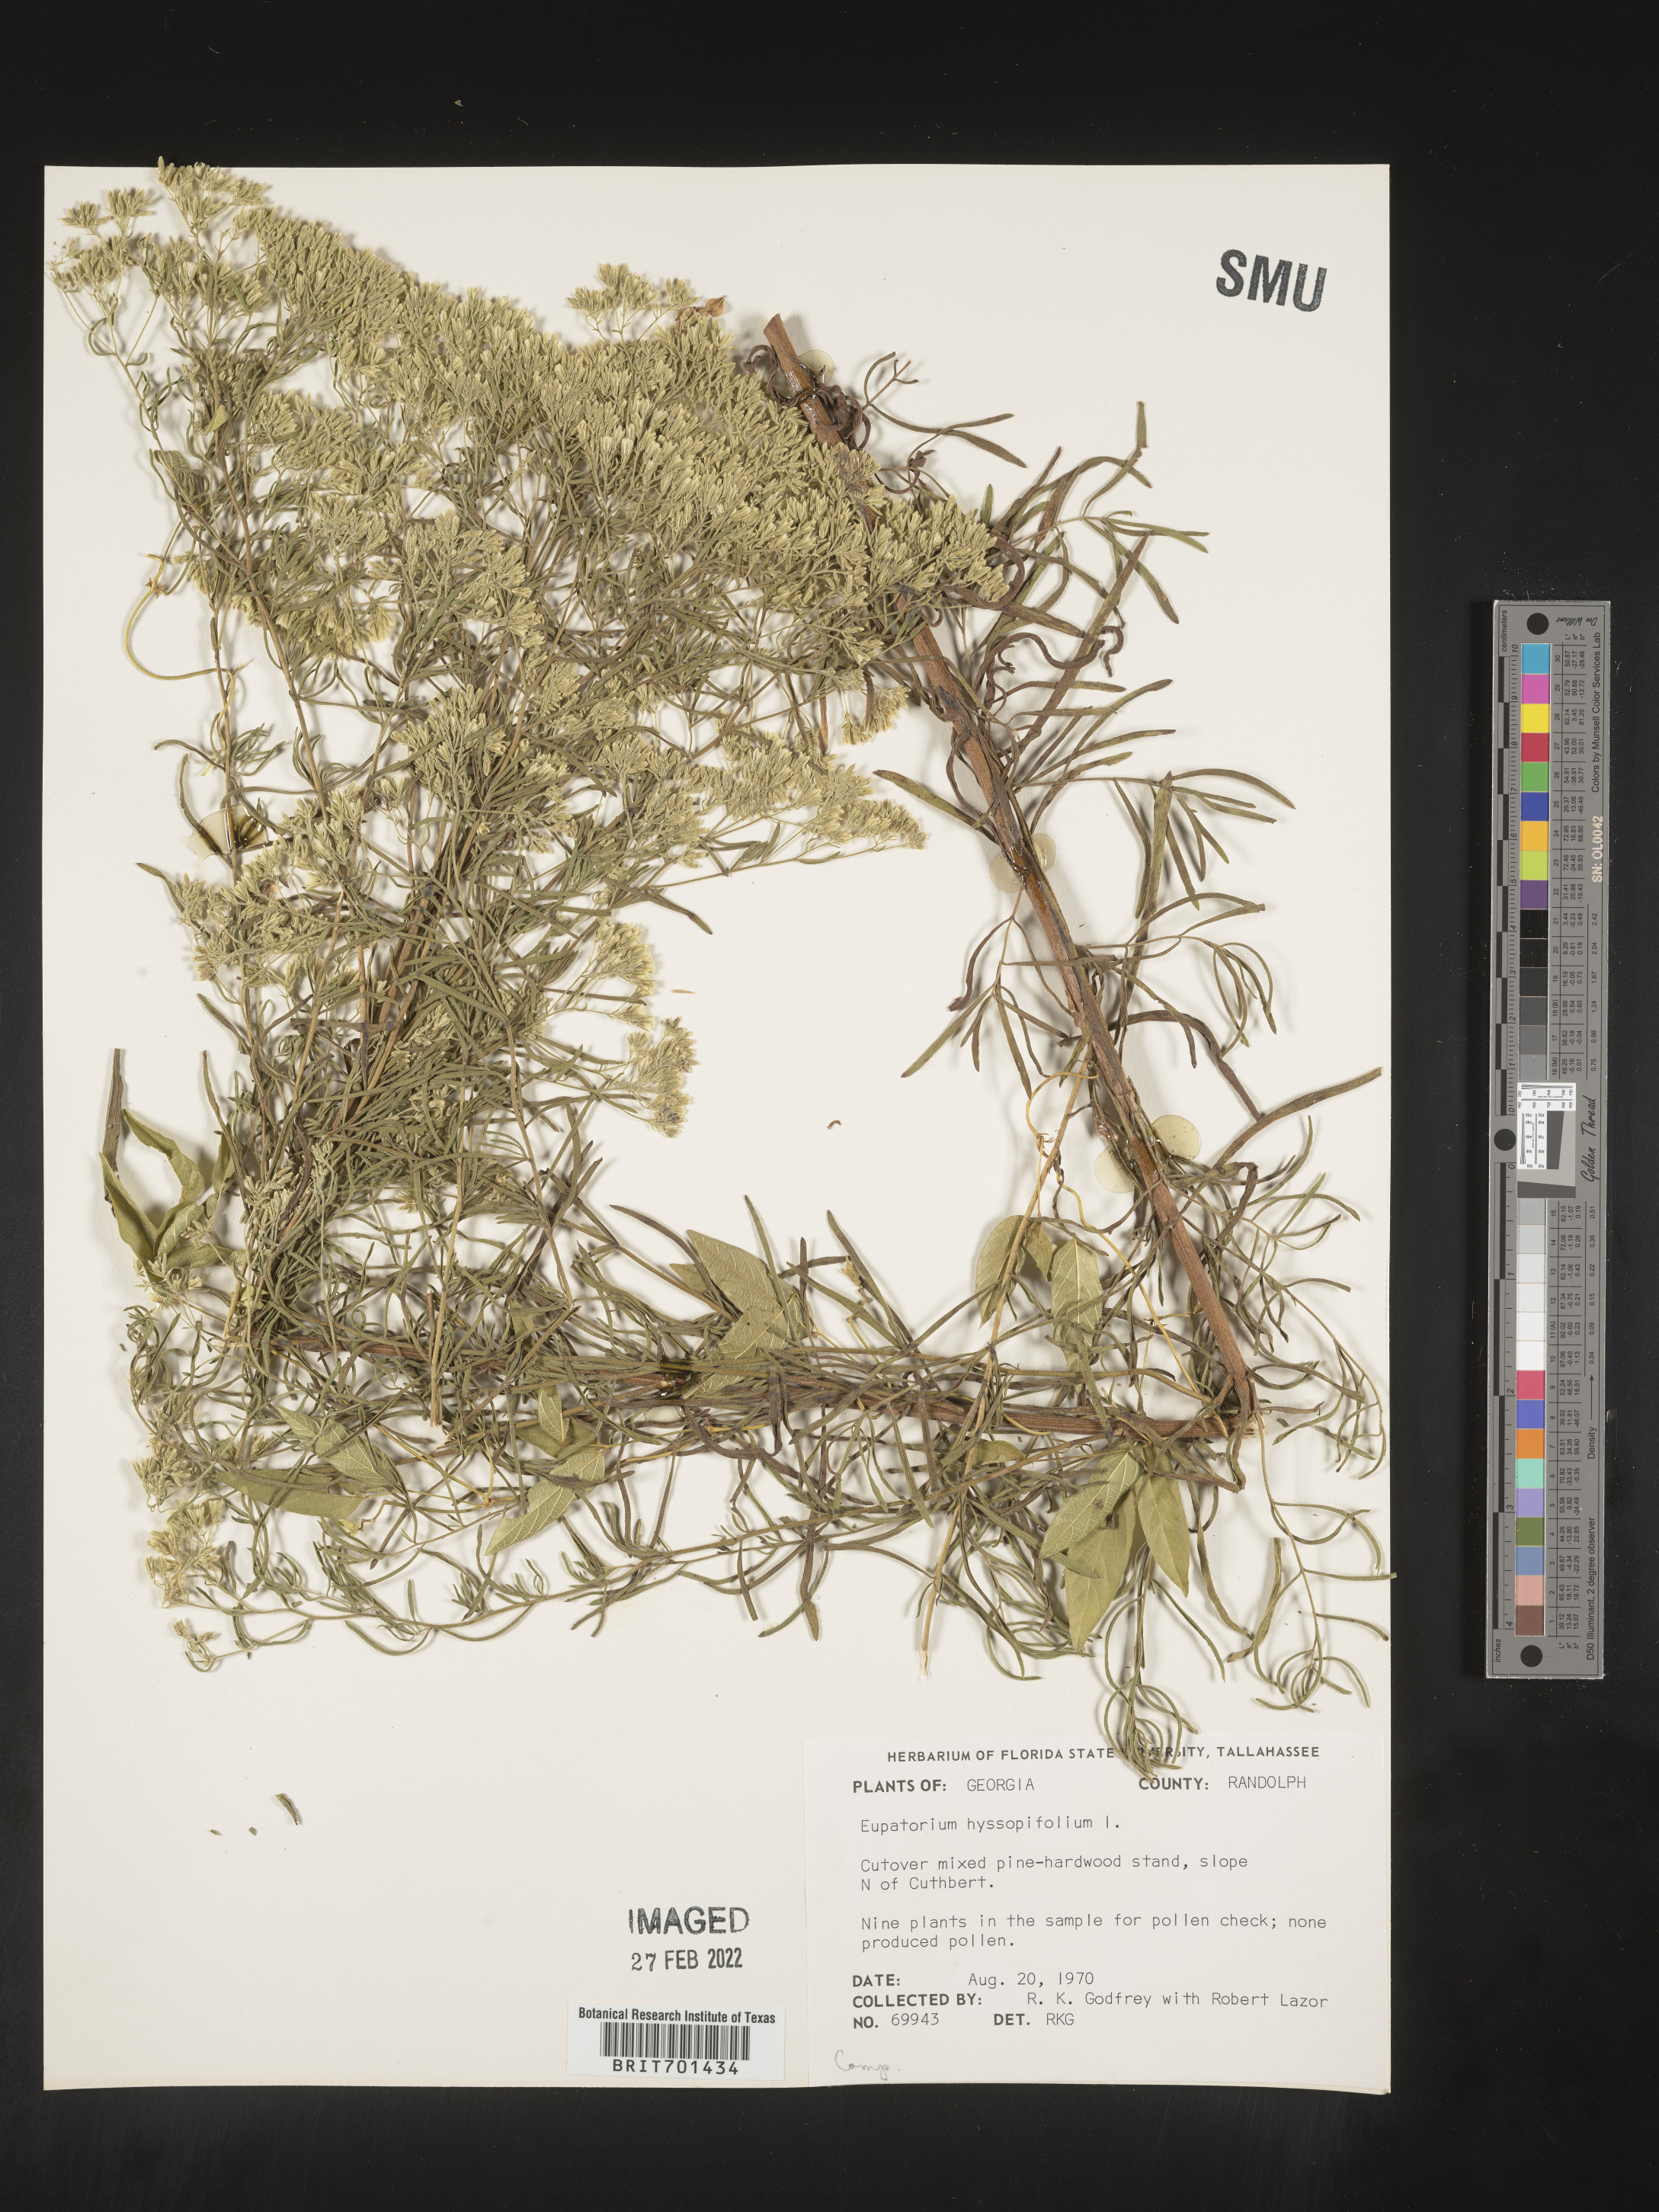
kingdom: Plantae
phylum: Tracheophyta
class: Magnoliopsida
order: Asterales
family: Asteraceae
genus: Eupatorium
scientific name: Eupatorium hyssopifolium
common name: Hyssop-leaf thoroughwort
